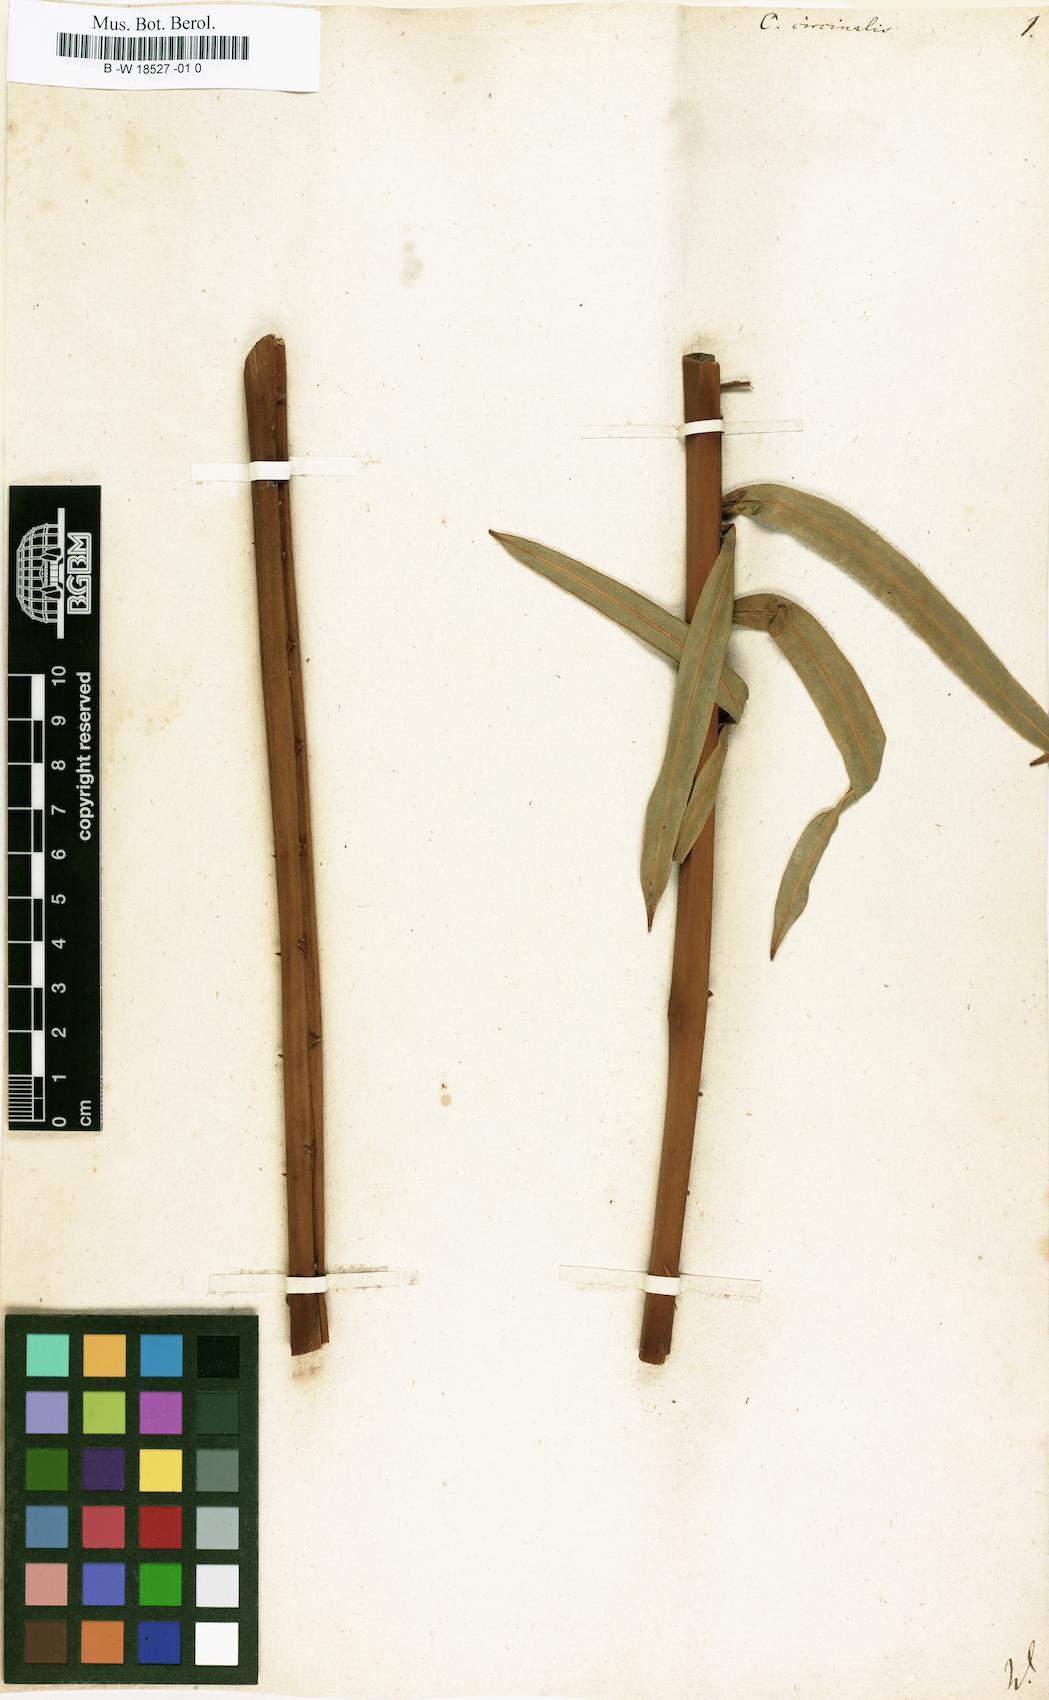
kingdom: Plantae
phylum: Tracheophyta
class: Cycadopsida
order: Cycadales
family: Cycadaceae
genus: Cycas
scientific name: Cycas circinalis
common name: Queen sago
